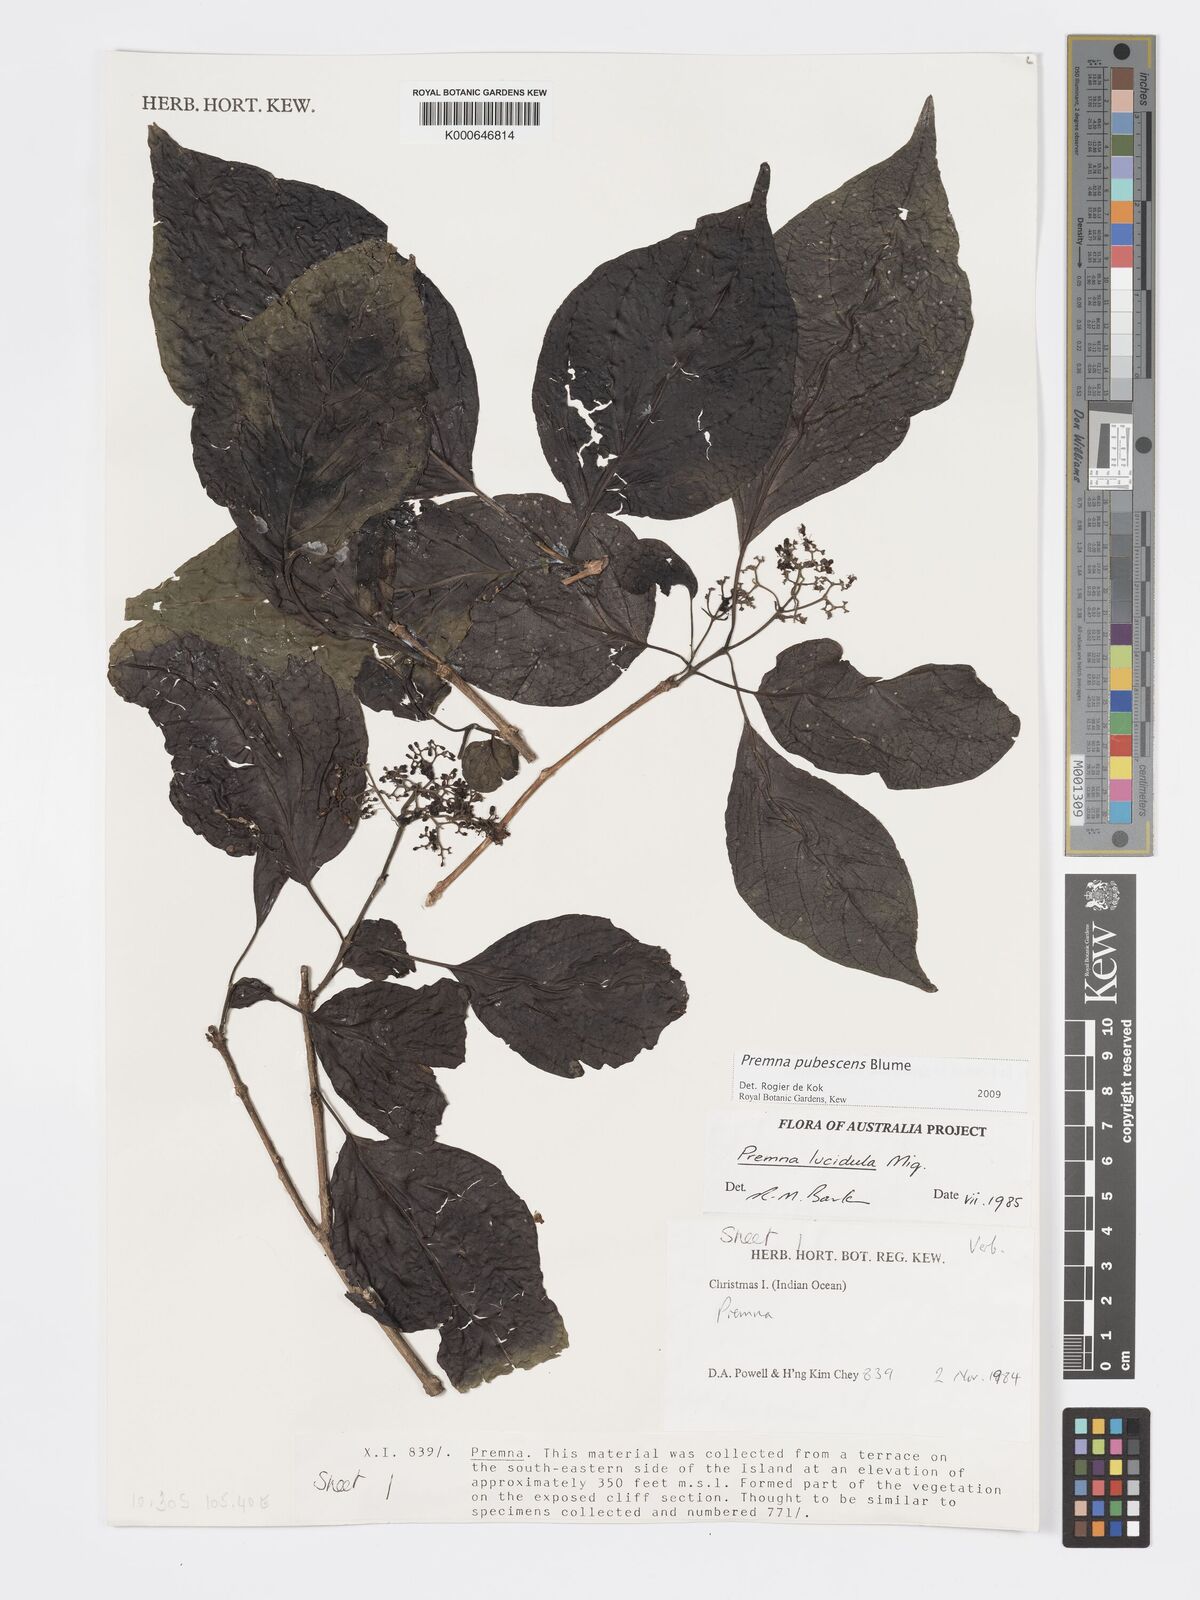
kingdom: Plantae
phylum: Tracheophyta
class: Magnoliopsida
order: Lamiales
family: Lamiaceae
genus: Premna
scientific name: Premna
